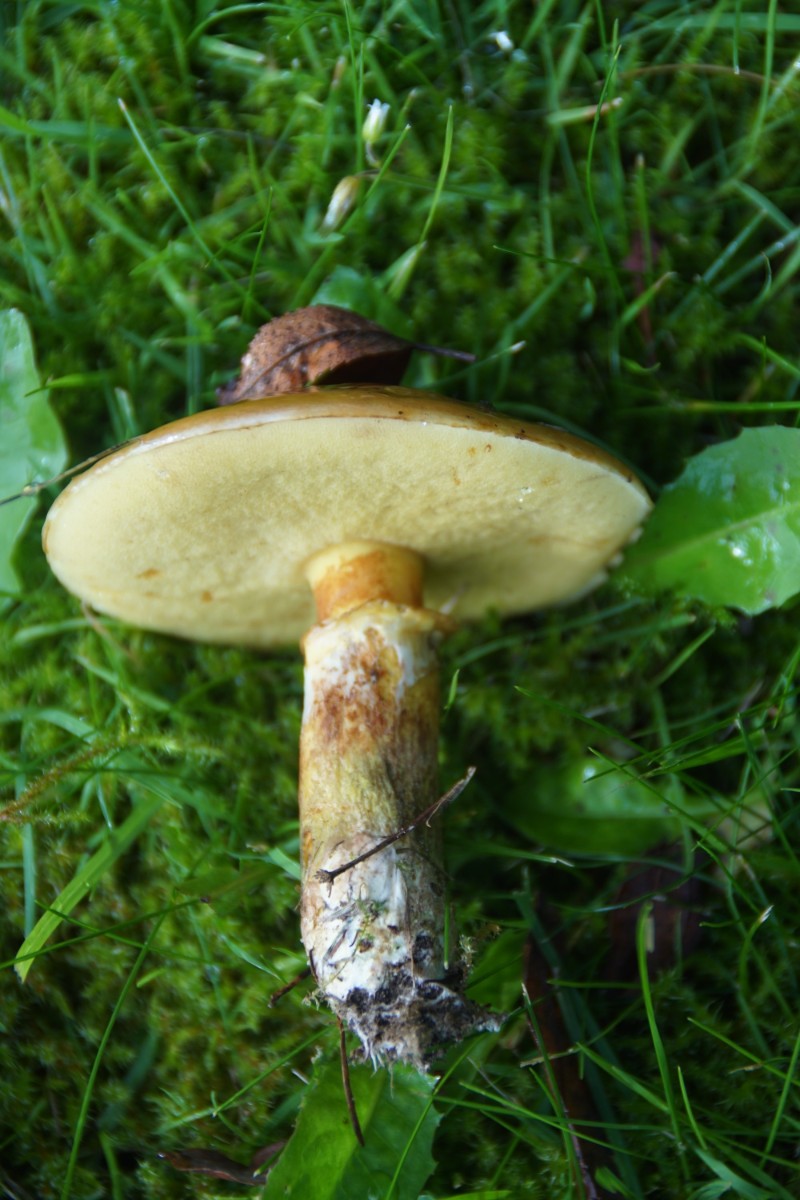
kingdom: Fungi
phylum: Basidiomycota
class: Agaricomycetes
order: Boletales
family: Suillaceae
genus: Suillus
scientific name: Suillus grevillei
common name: lærke-slimrørhat
